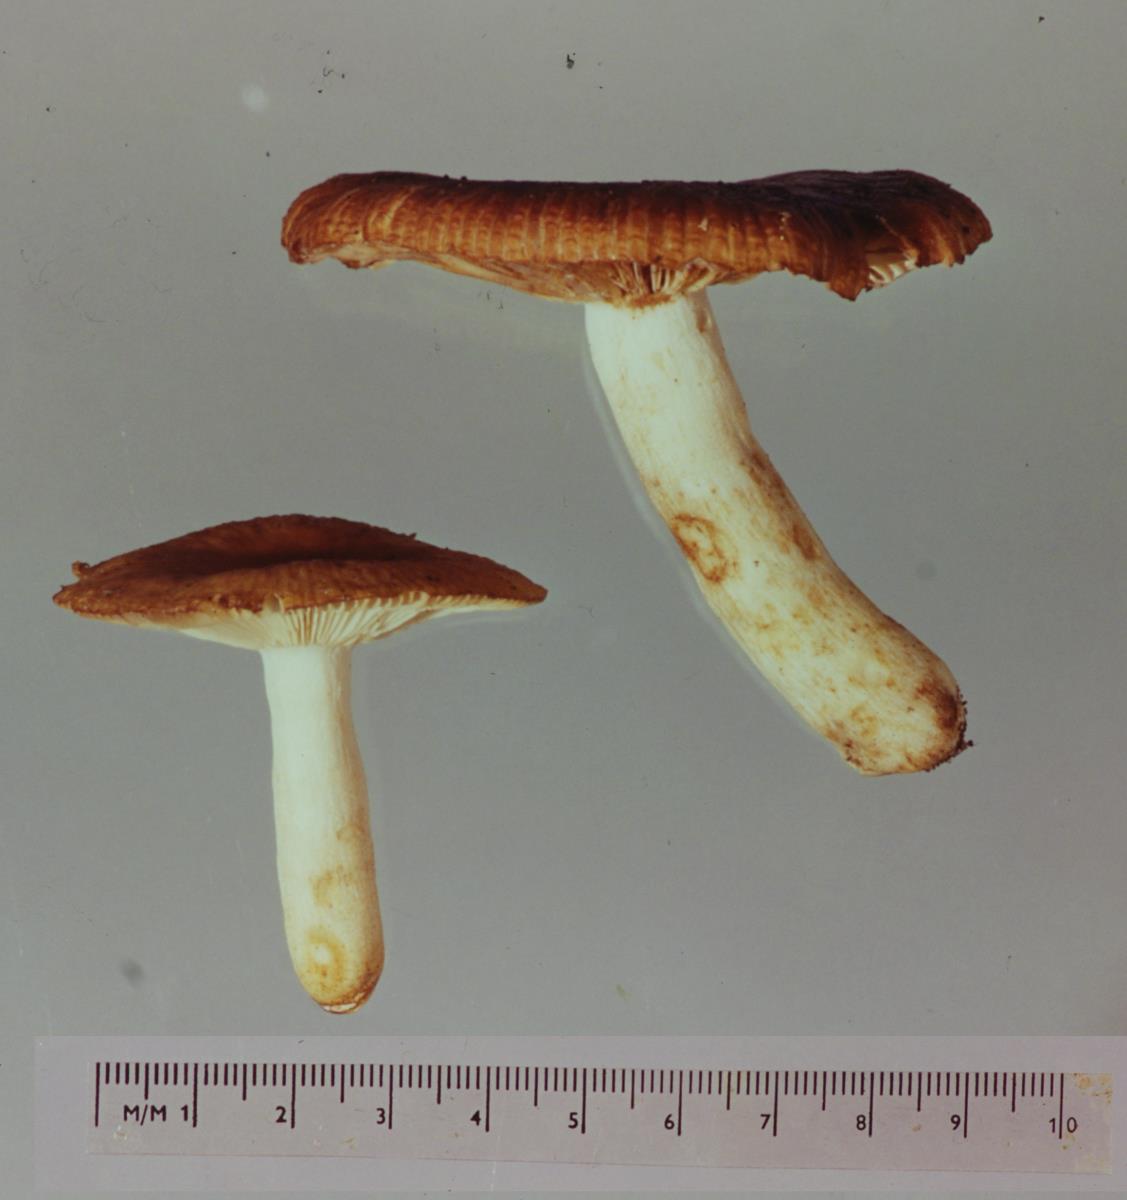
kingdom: Fungi
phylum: Basidiomycota
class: Agaricomycetes
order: Russulales
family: Russulaceae
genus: Russula
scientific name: Russula novae-zelandiae
